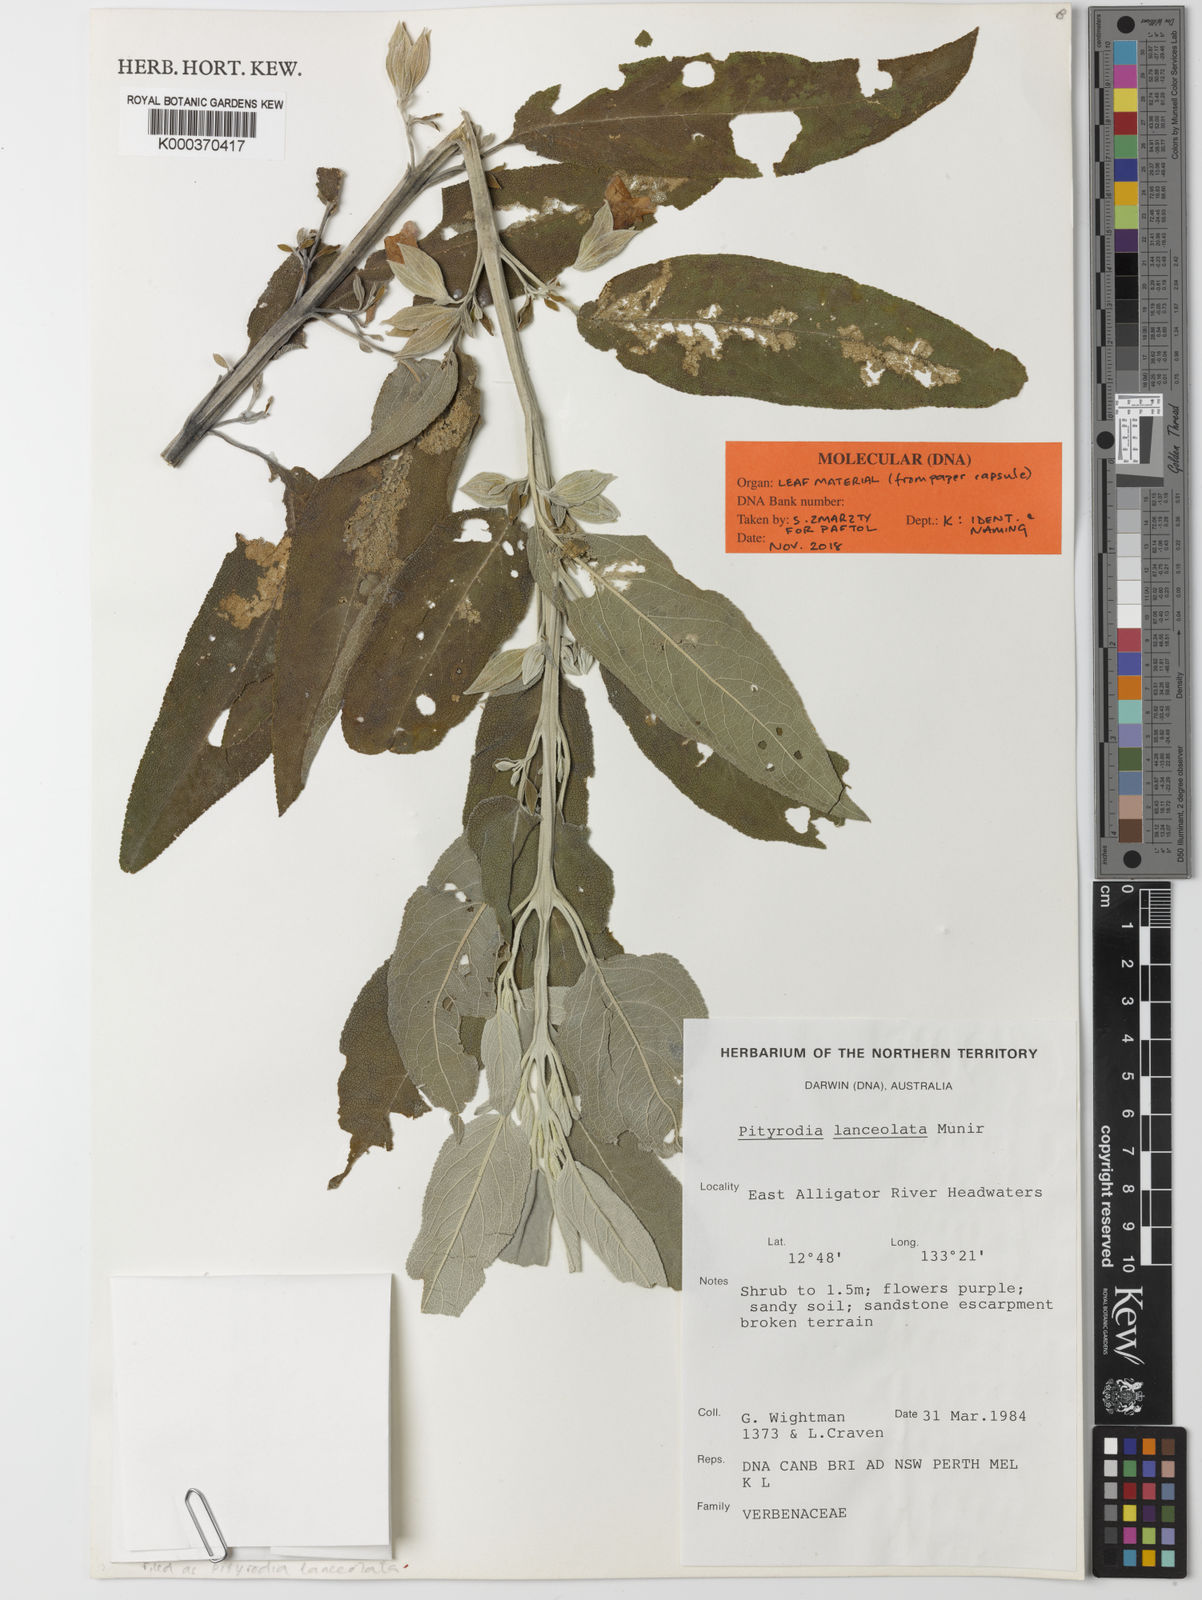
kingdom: Plantae
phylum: Tracheophyta
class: Magnoliopsida
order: Lamiales
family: Lamiaceae
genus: Muniria
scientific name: Muniria lanceolata
